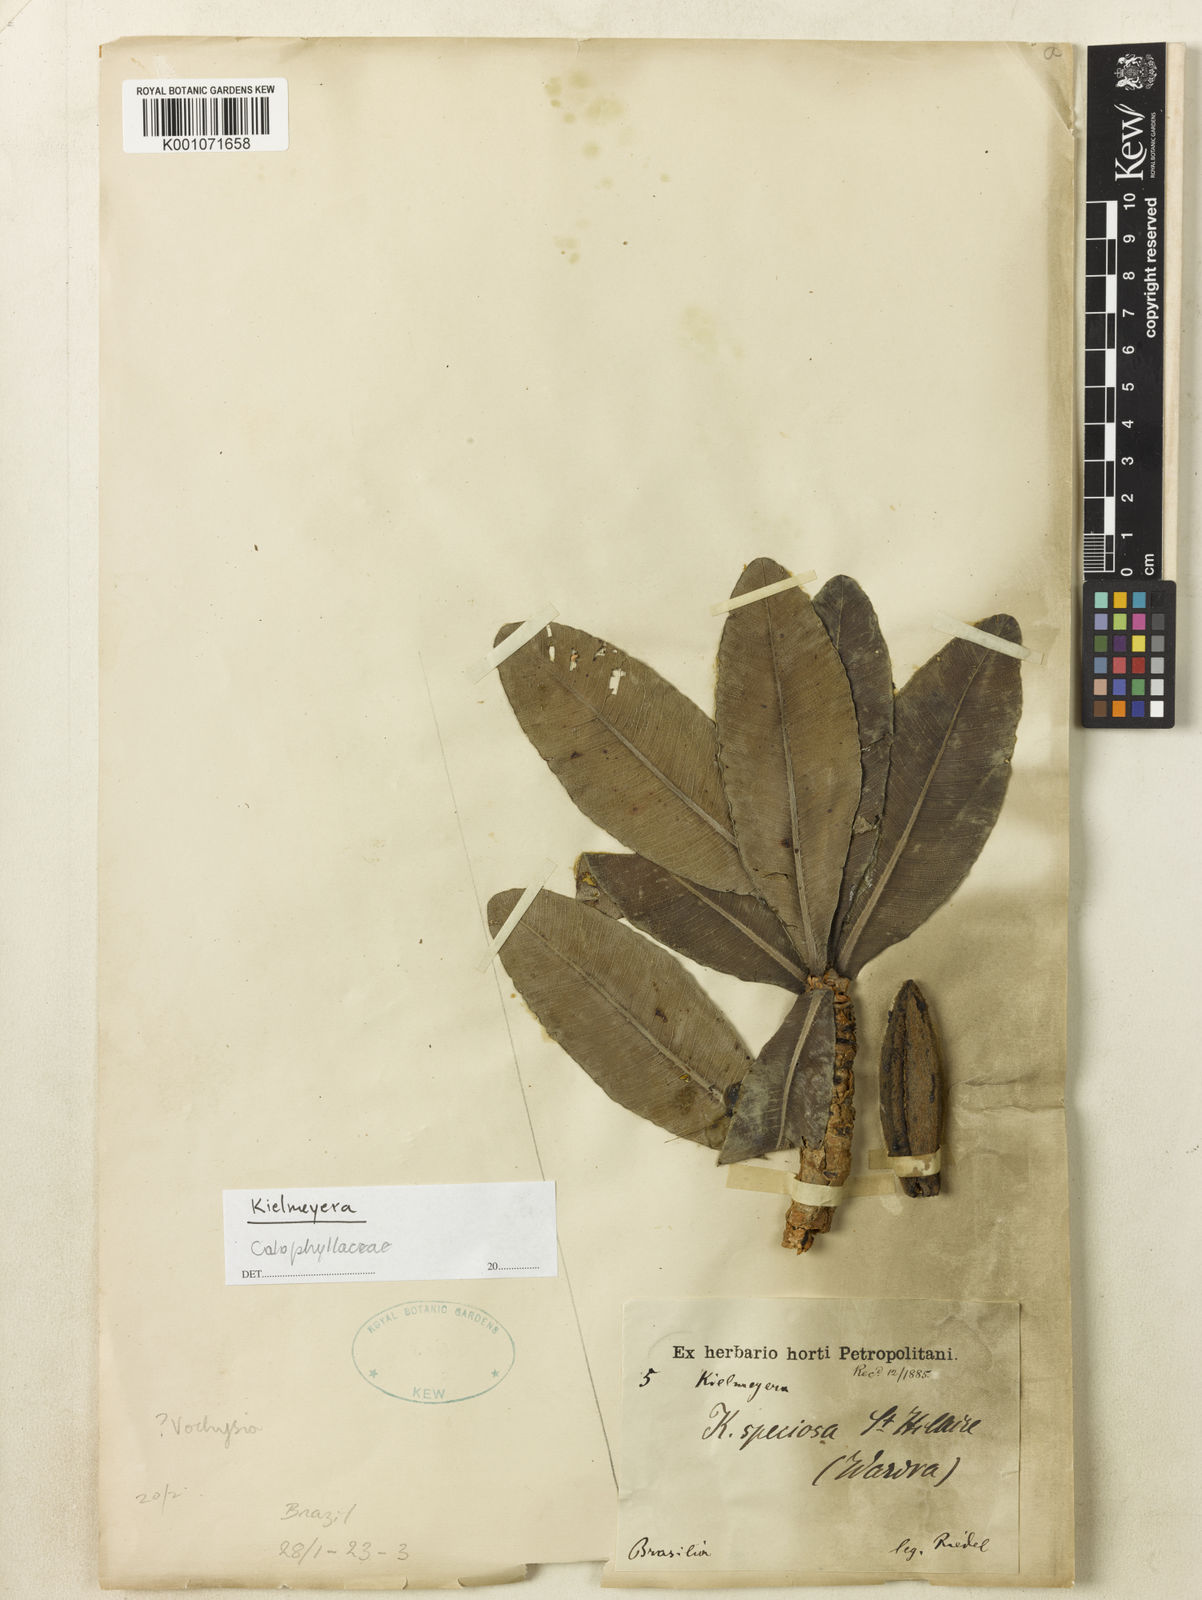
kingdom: Plantae
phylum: Tracheophyta
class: Magnoliopsida
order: Malpighiales
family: Calophyllaceae
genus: Kielmeyera
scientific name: Kielmeyera speciosa
